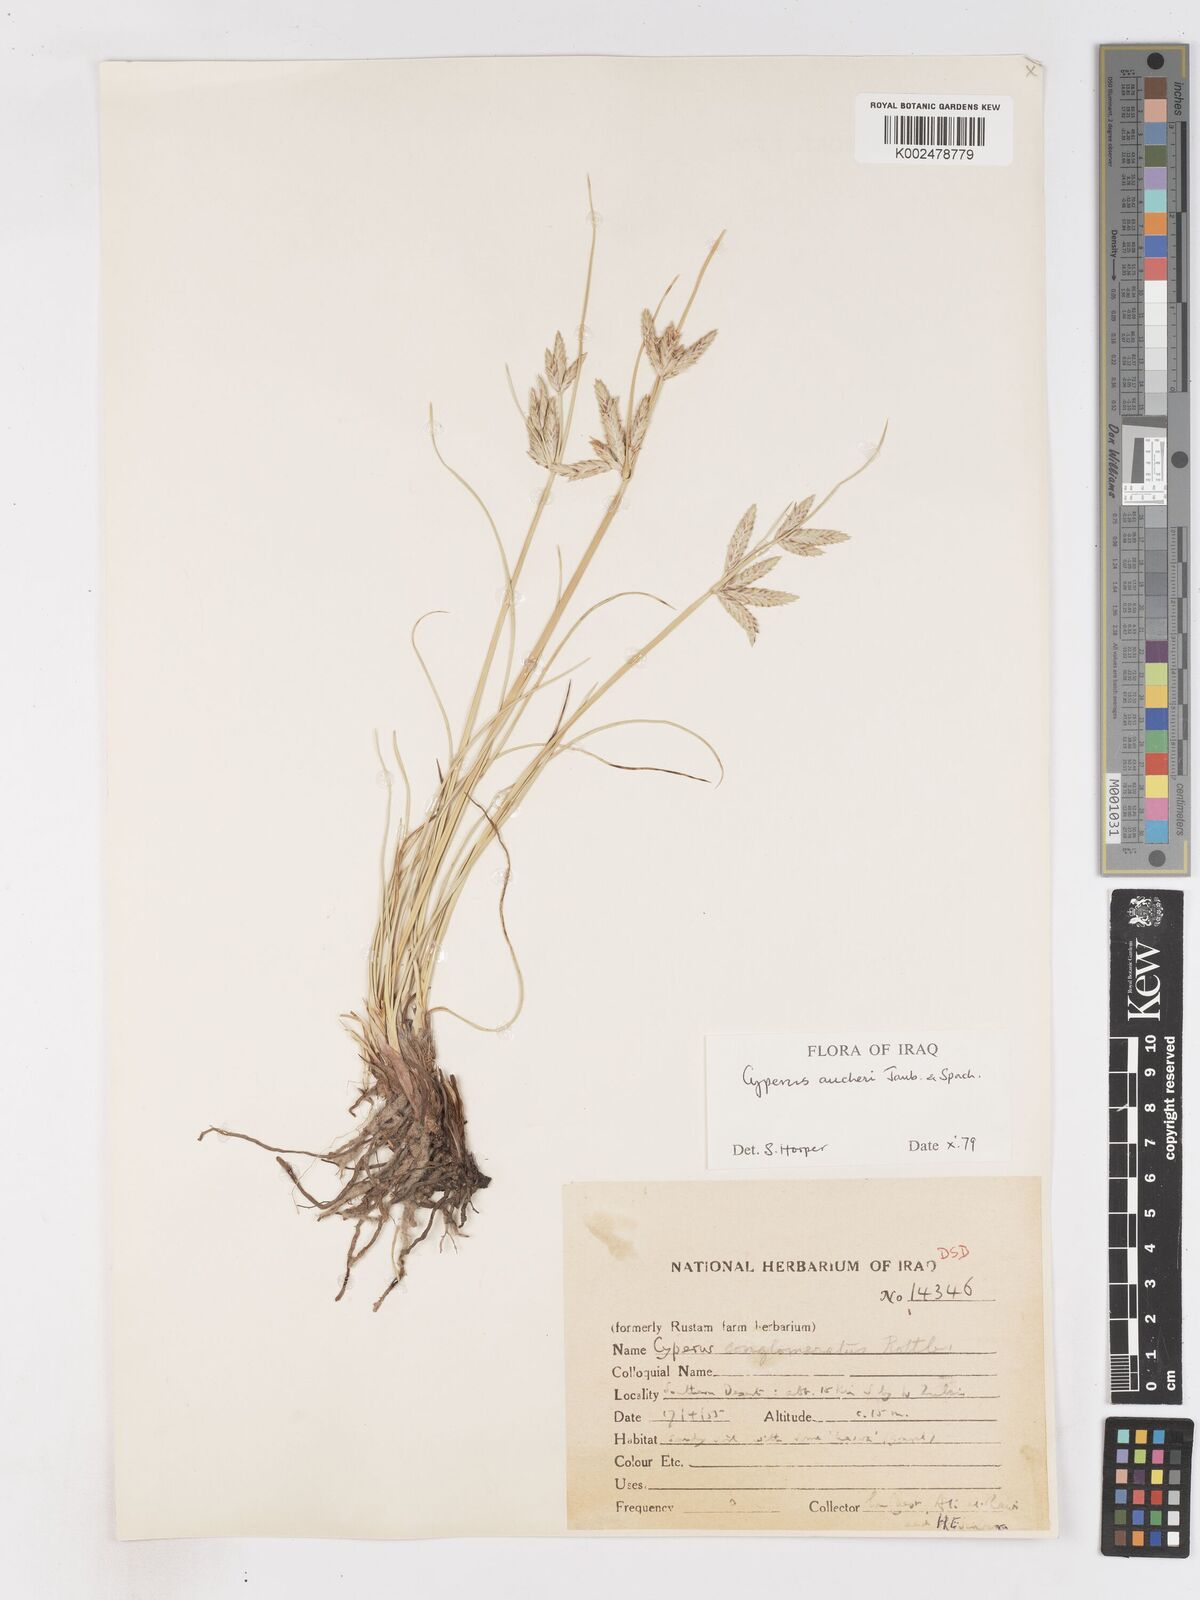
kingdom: Plantae
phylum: Tracheophyta
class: Liliopsida
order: Poales
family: Cyperaceae
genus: Cyperus
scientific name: Cyperus aucheri
